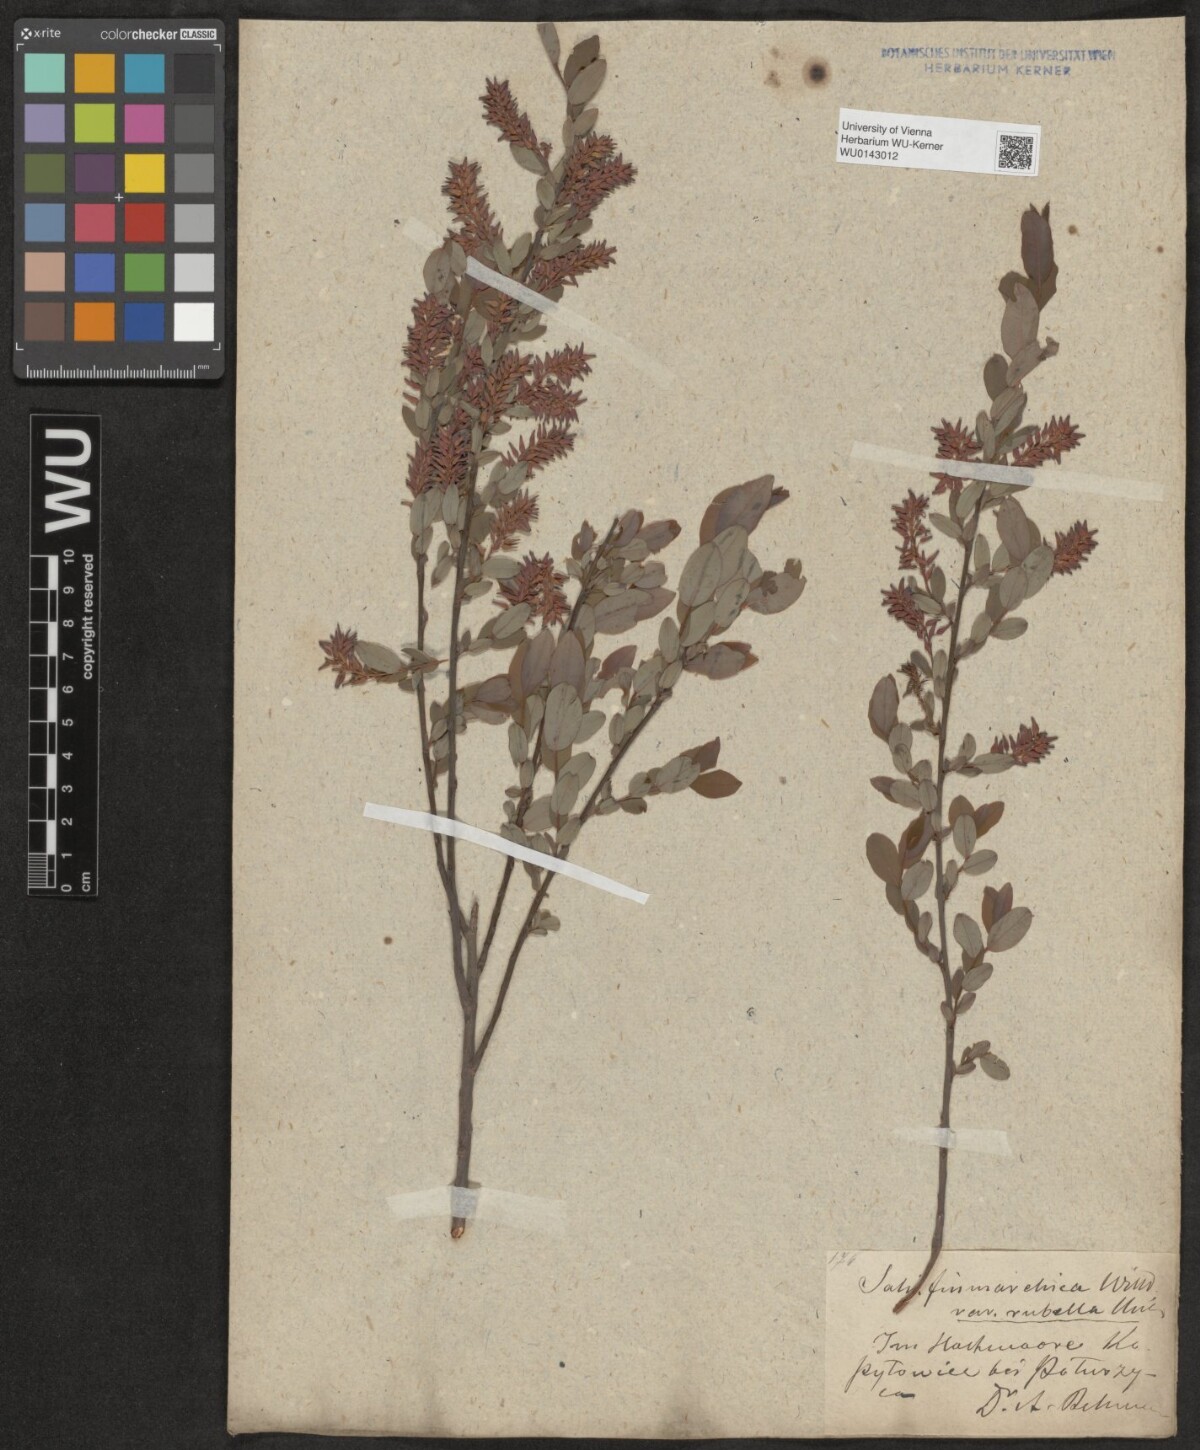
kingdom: Plantae
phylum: Tracheophyta
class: Magnoliopsida
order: Malpighiales
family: Salicaceae
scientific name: Salicaceae
